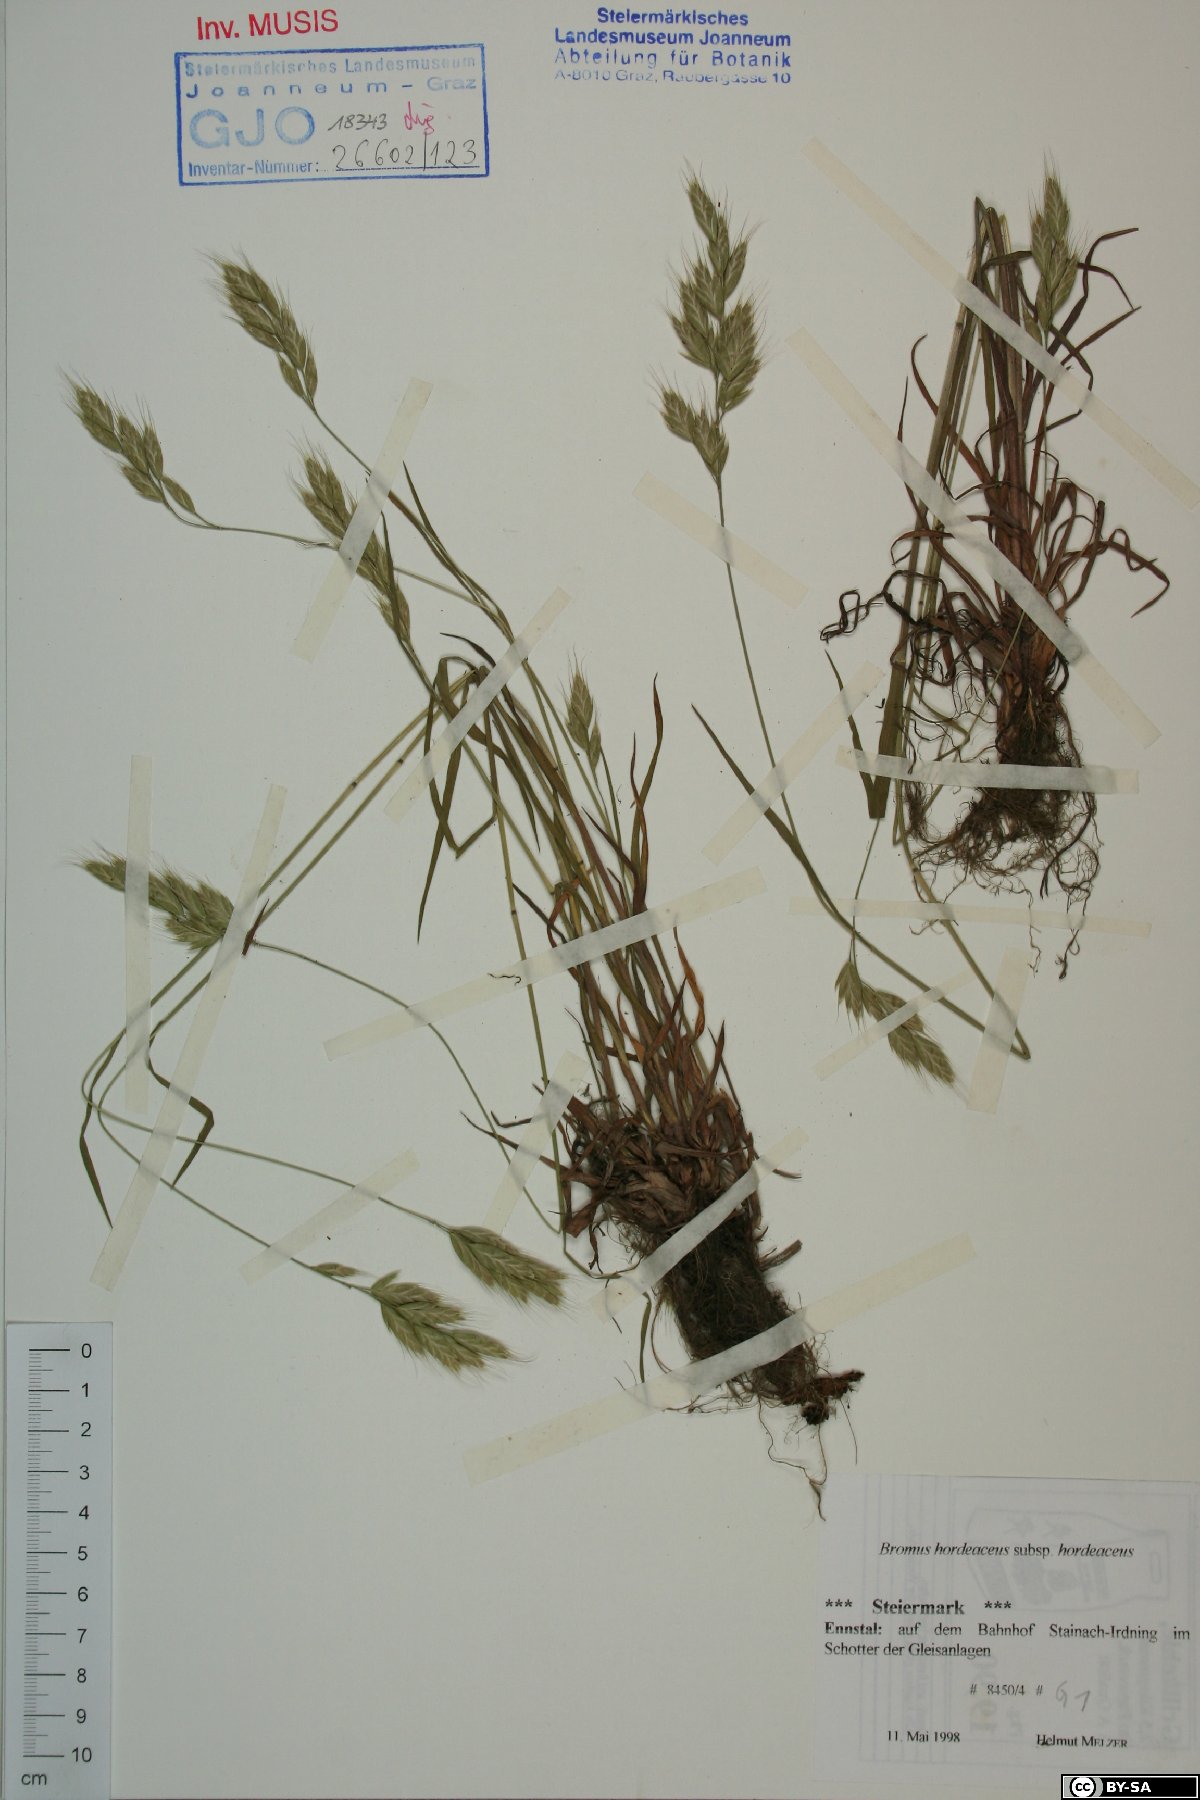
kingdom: Plantae
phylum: Tracheophyta
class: Liliopsida
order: Poales
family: Poaceae
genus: Bromus
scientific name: Bromus hordeaceus
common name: Soft brome
